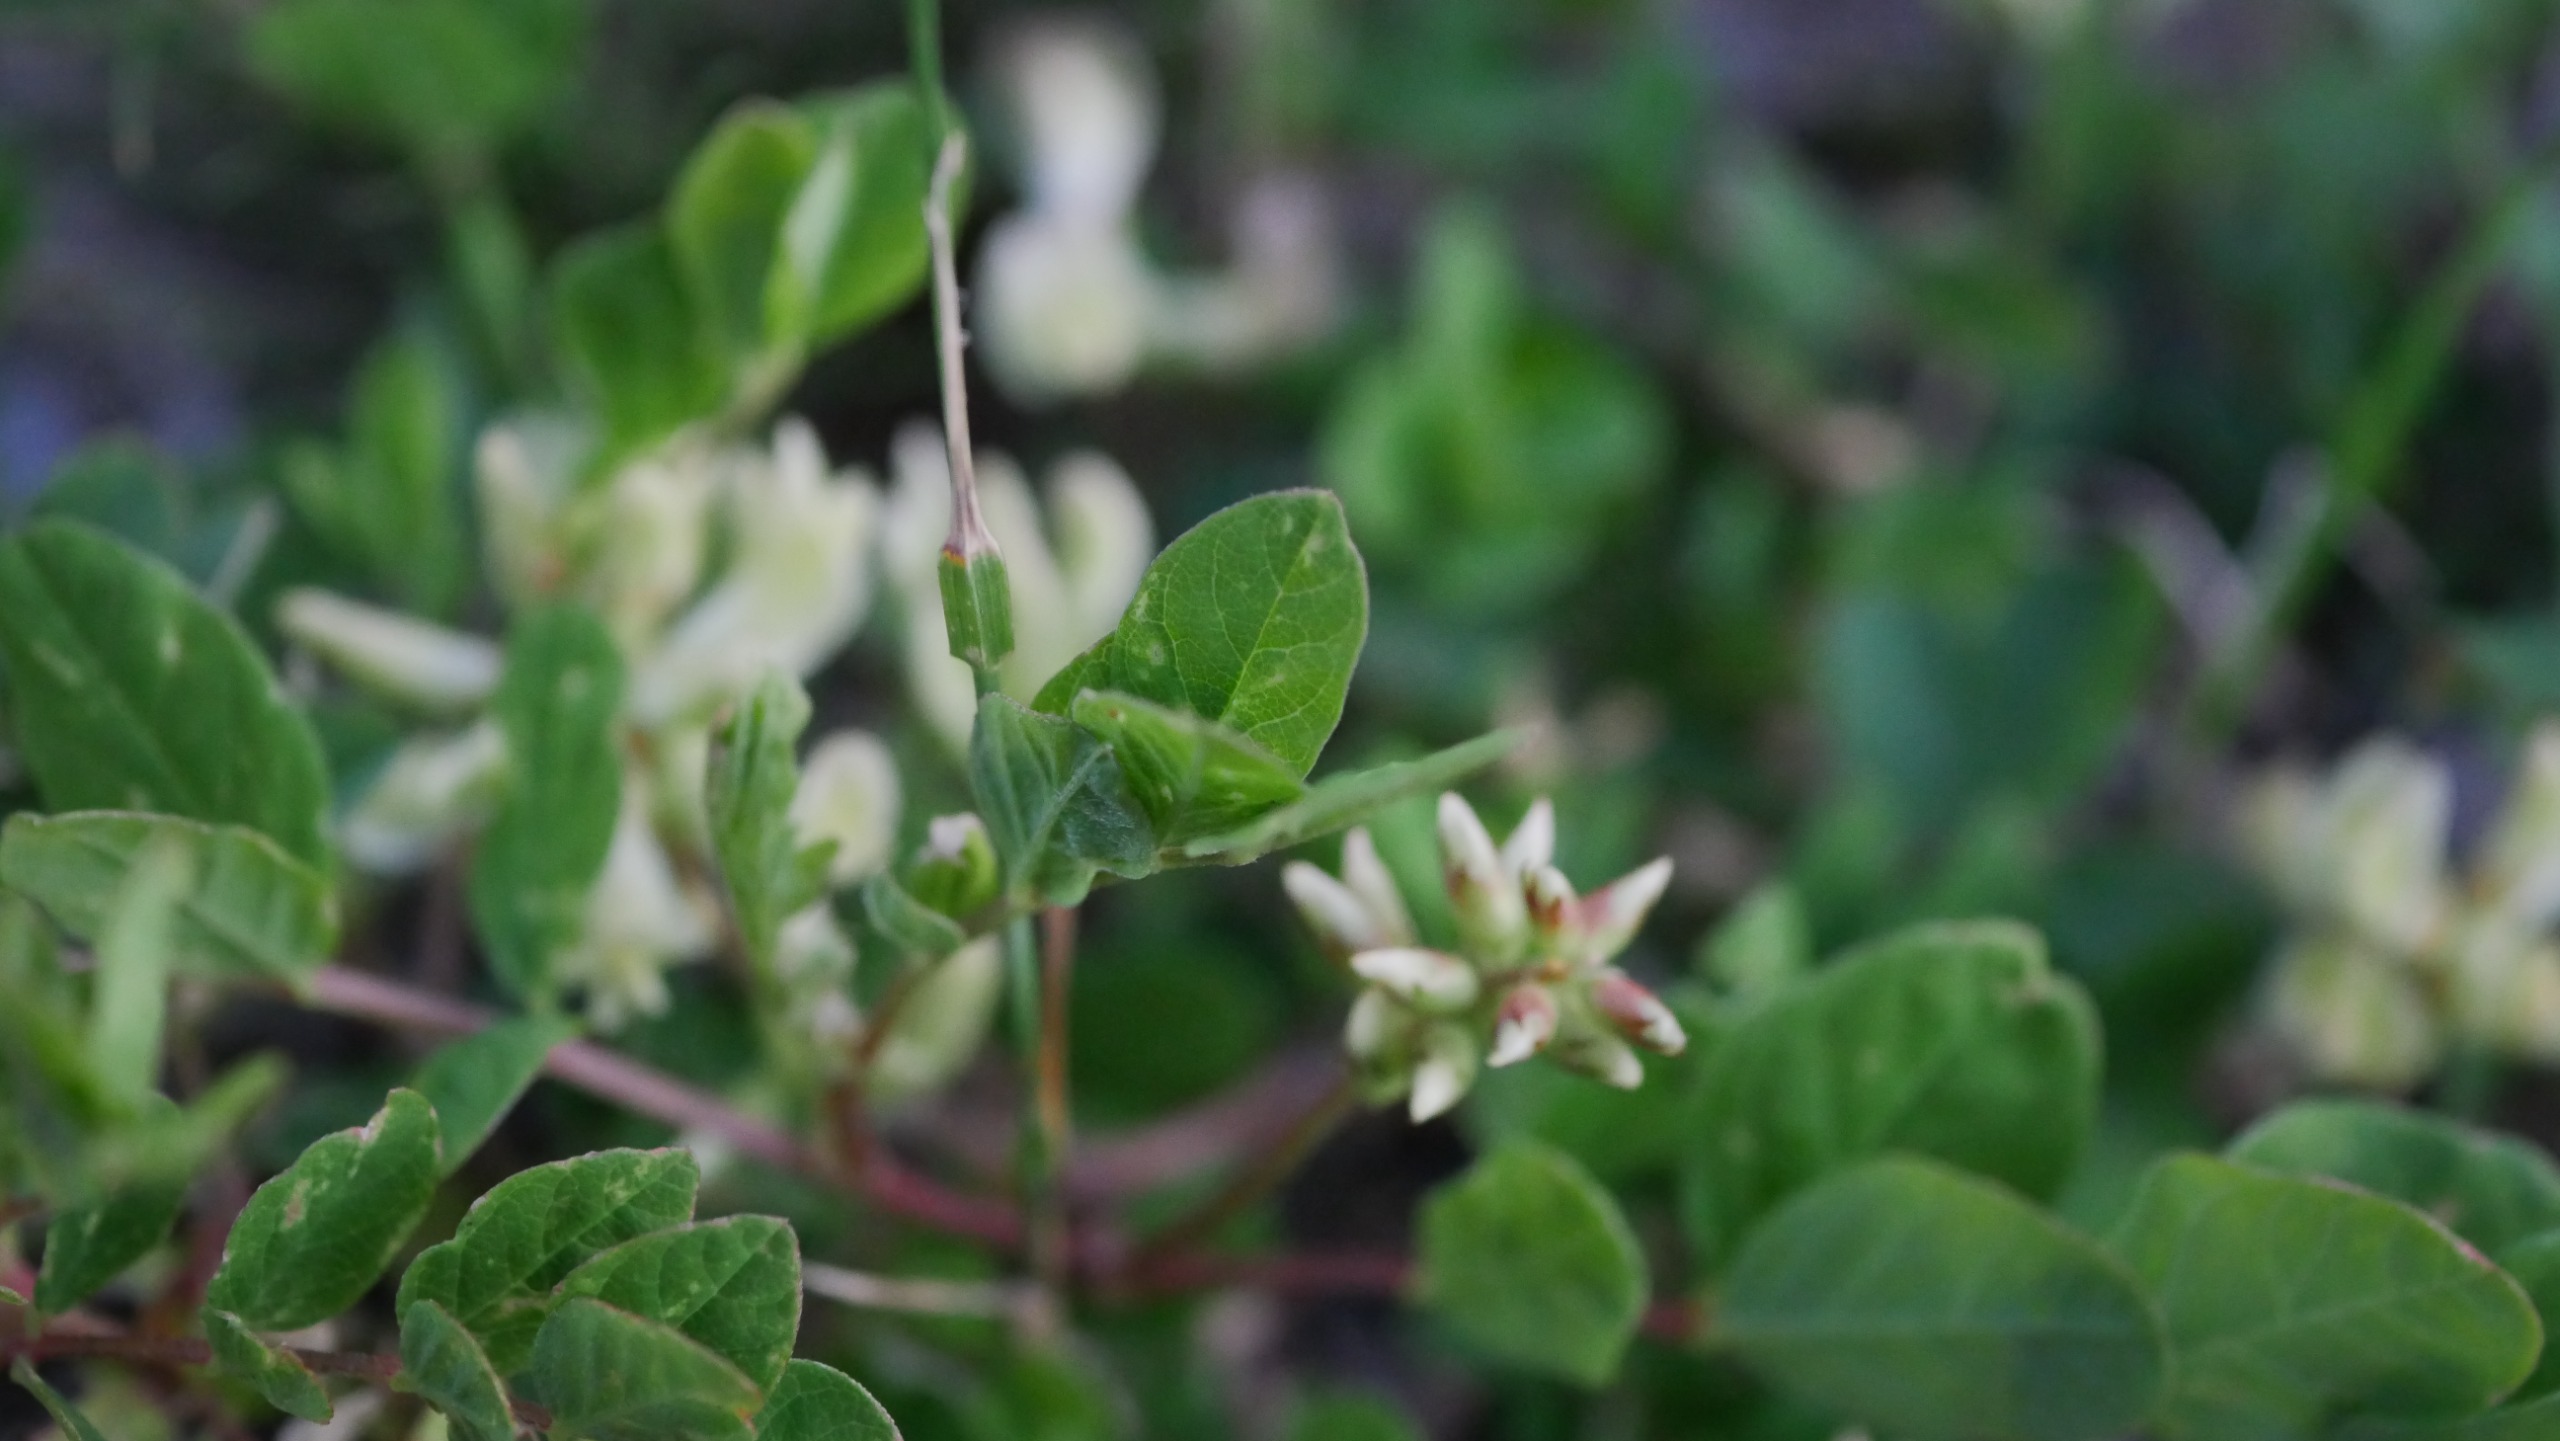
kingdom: Plantae
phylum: Tracheophyta
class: Magnoliopsida
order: Fabales
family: Fabaceae
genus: Astragalus
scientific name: Astragalus glycyphyllos
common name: Sød astragel
